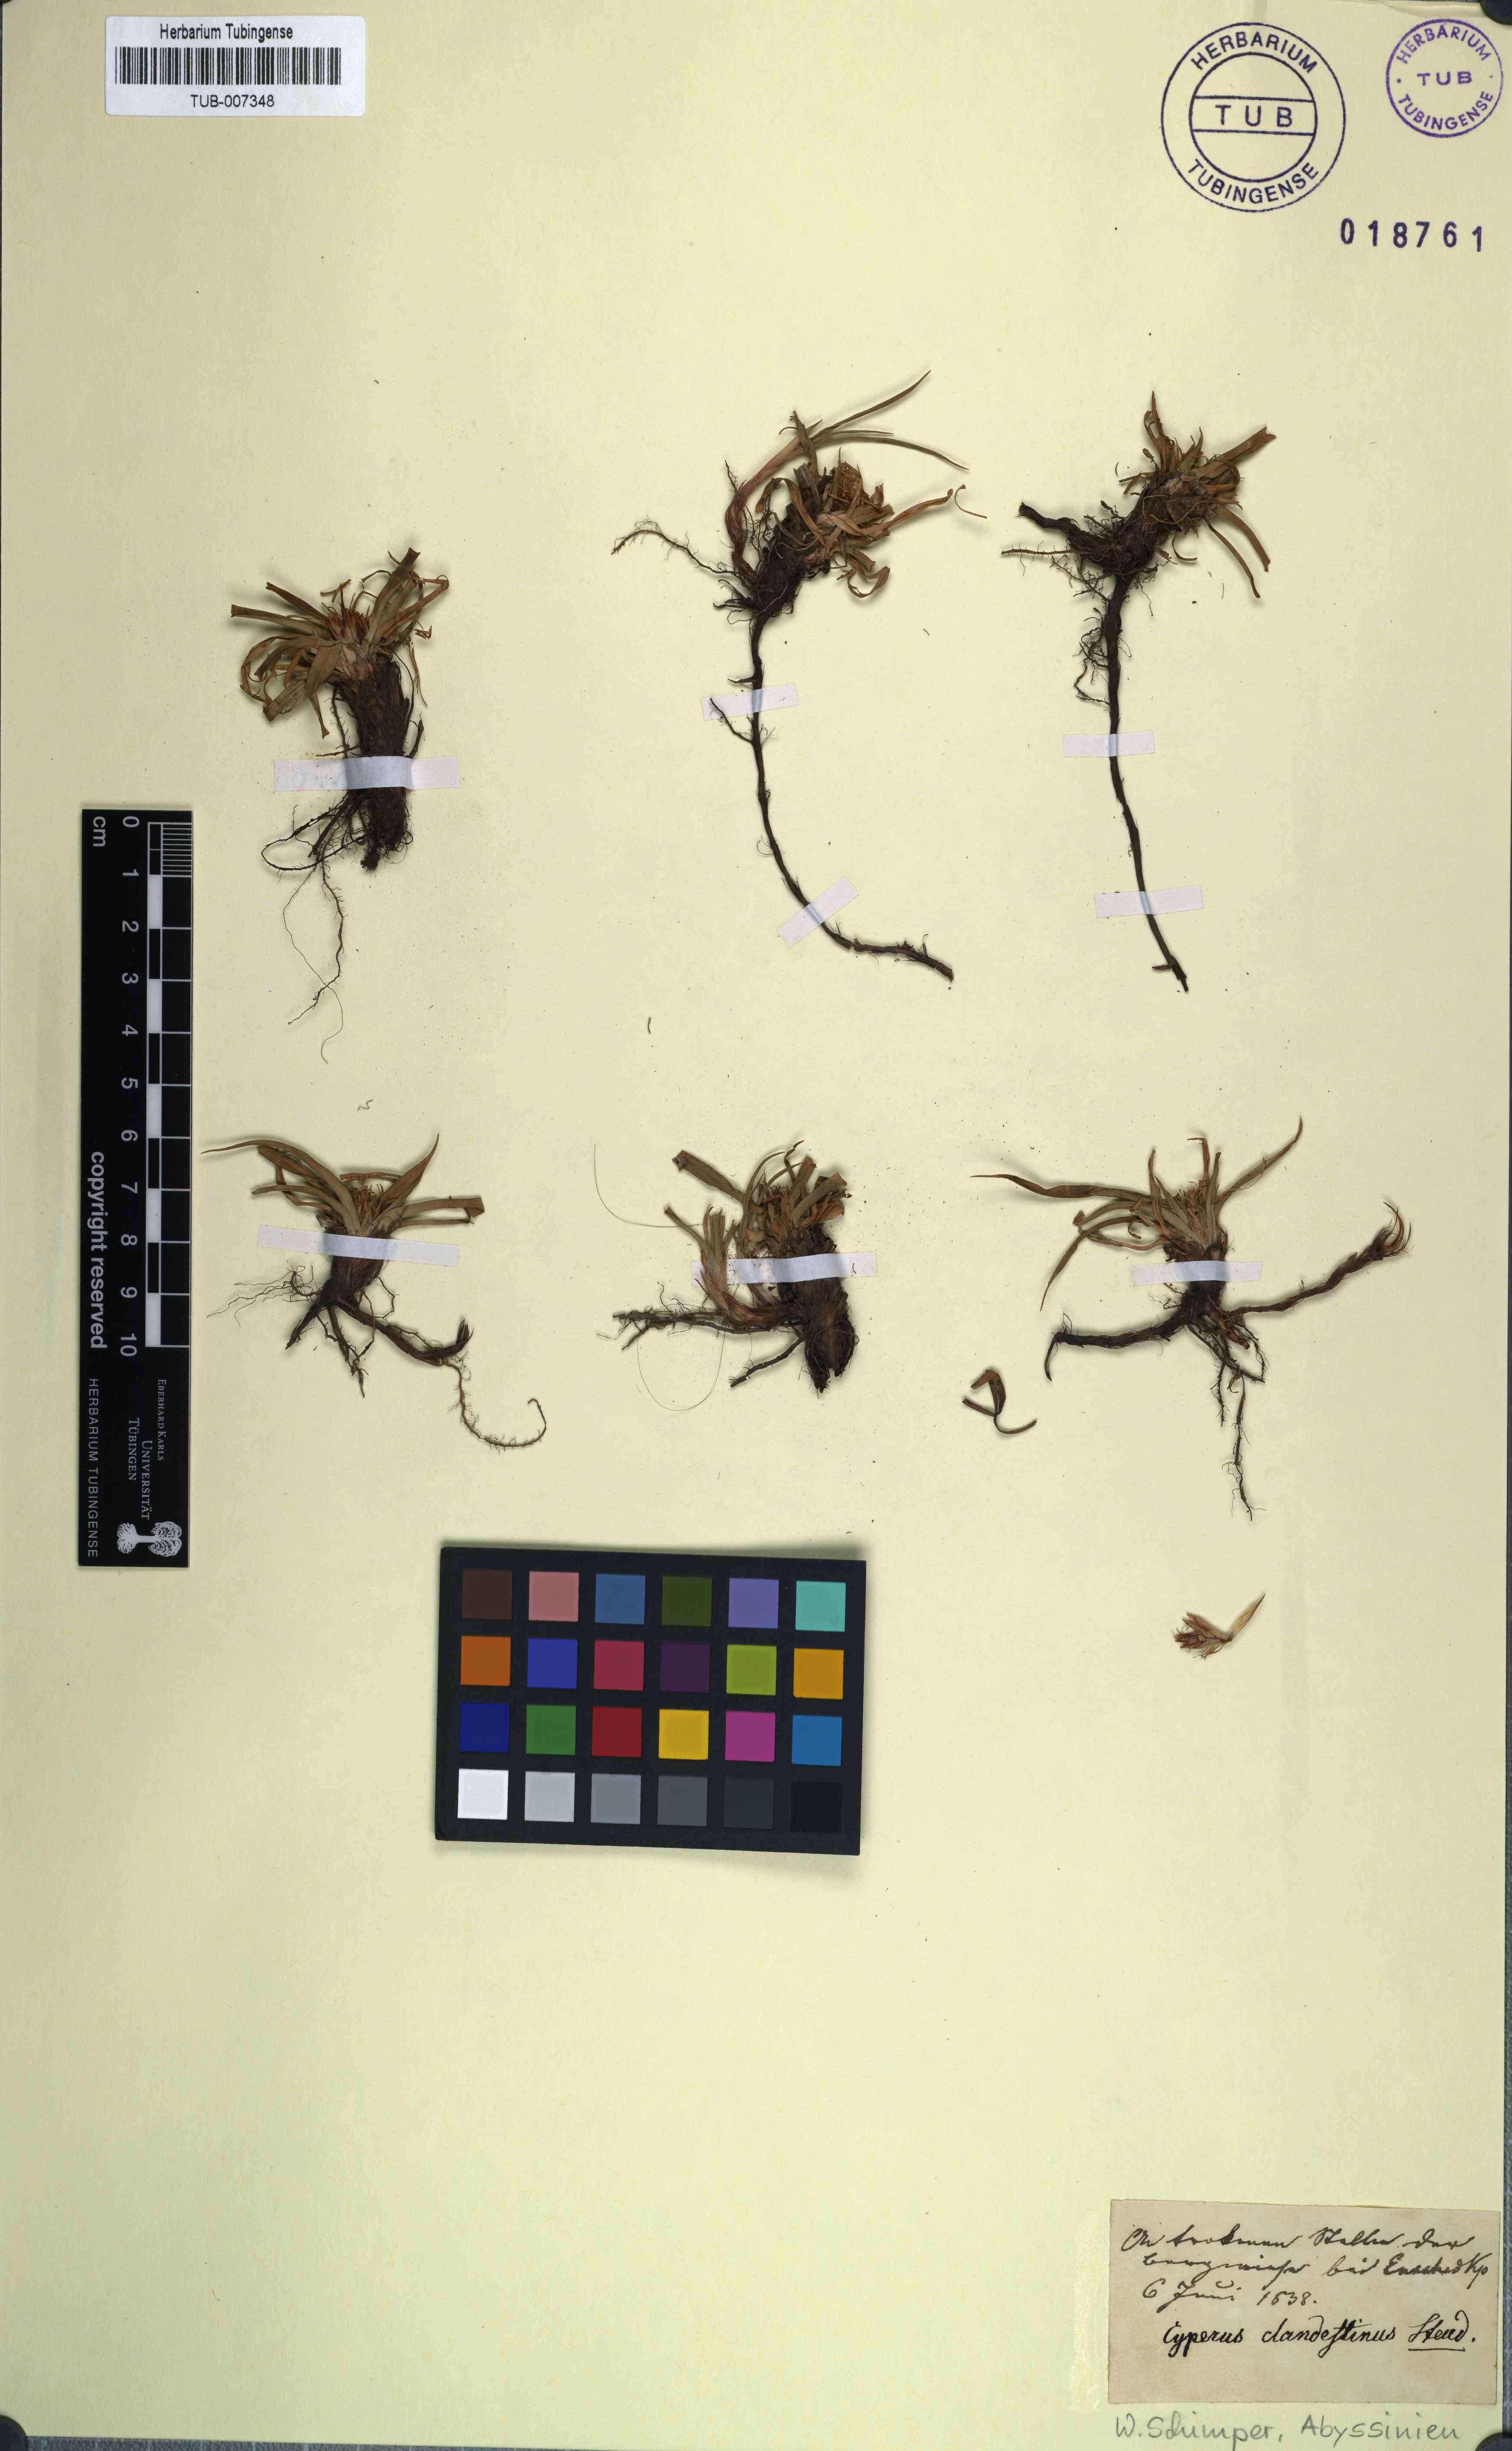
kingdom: Plantae
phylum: Tracheophyta
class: Liliopsida
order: Poales
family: Cyperaceae
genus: Cyperus
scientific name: Cyperus clandestinus
